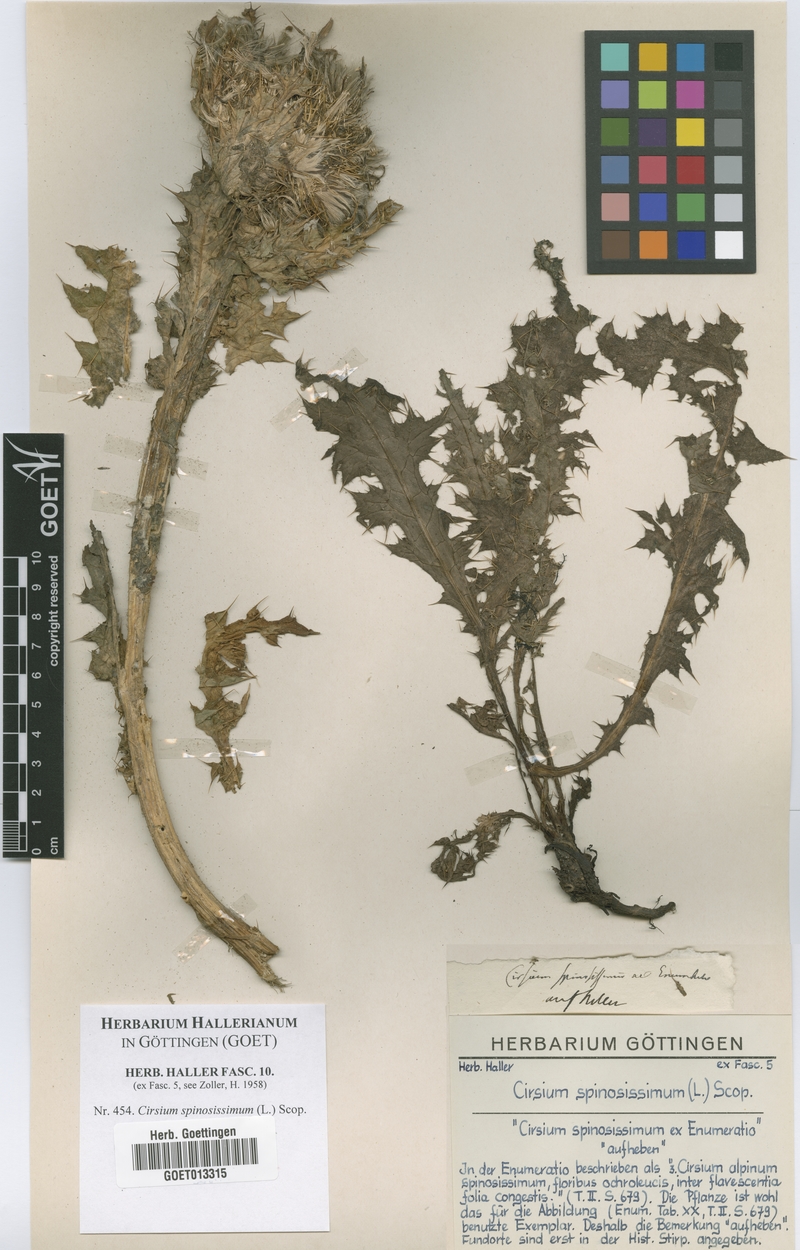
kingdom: Plantae
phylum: Tracheophyta
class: Magnoliopsida
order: Asterales
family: Asteraceae
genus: Cirsium
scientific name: Cirsium spinosissimum
